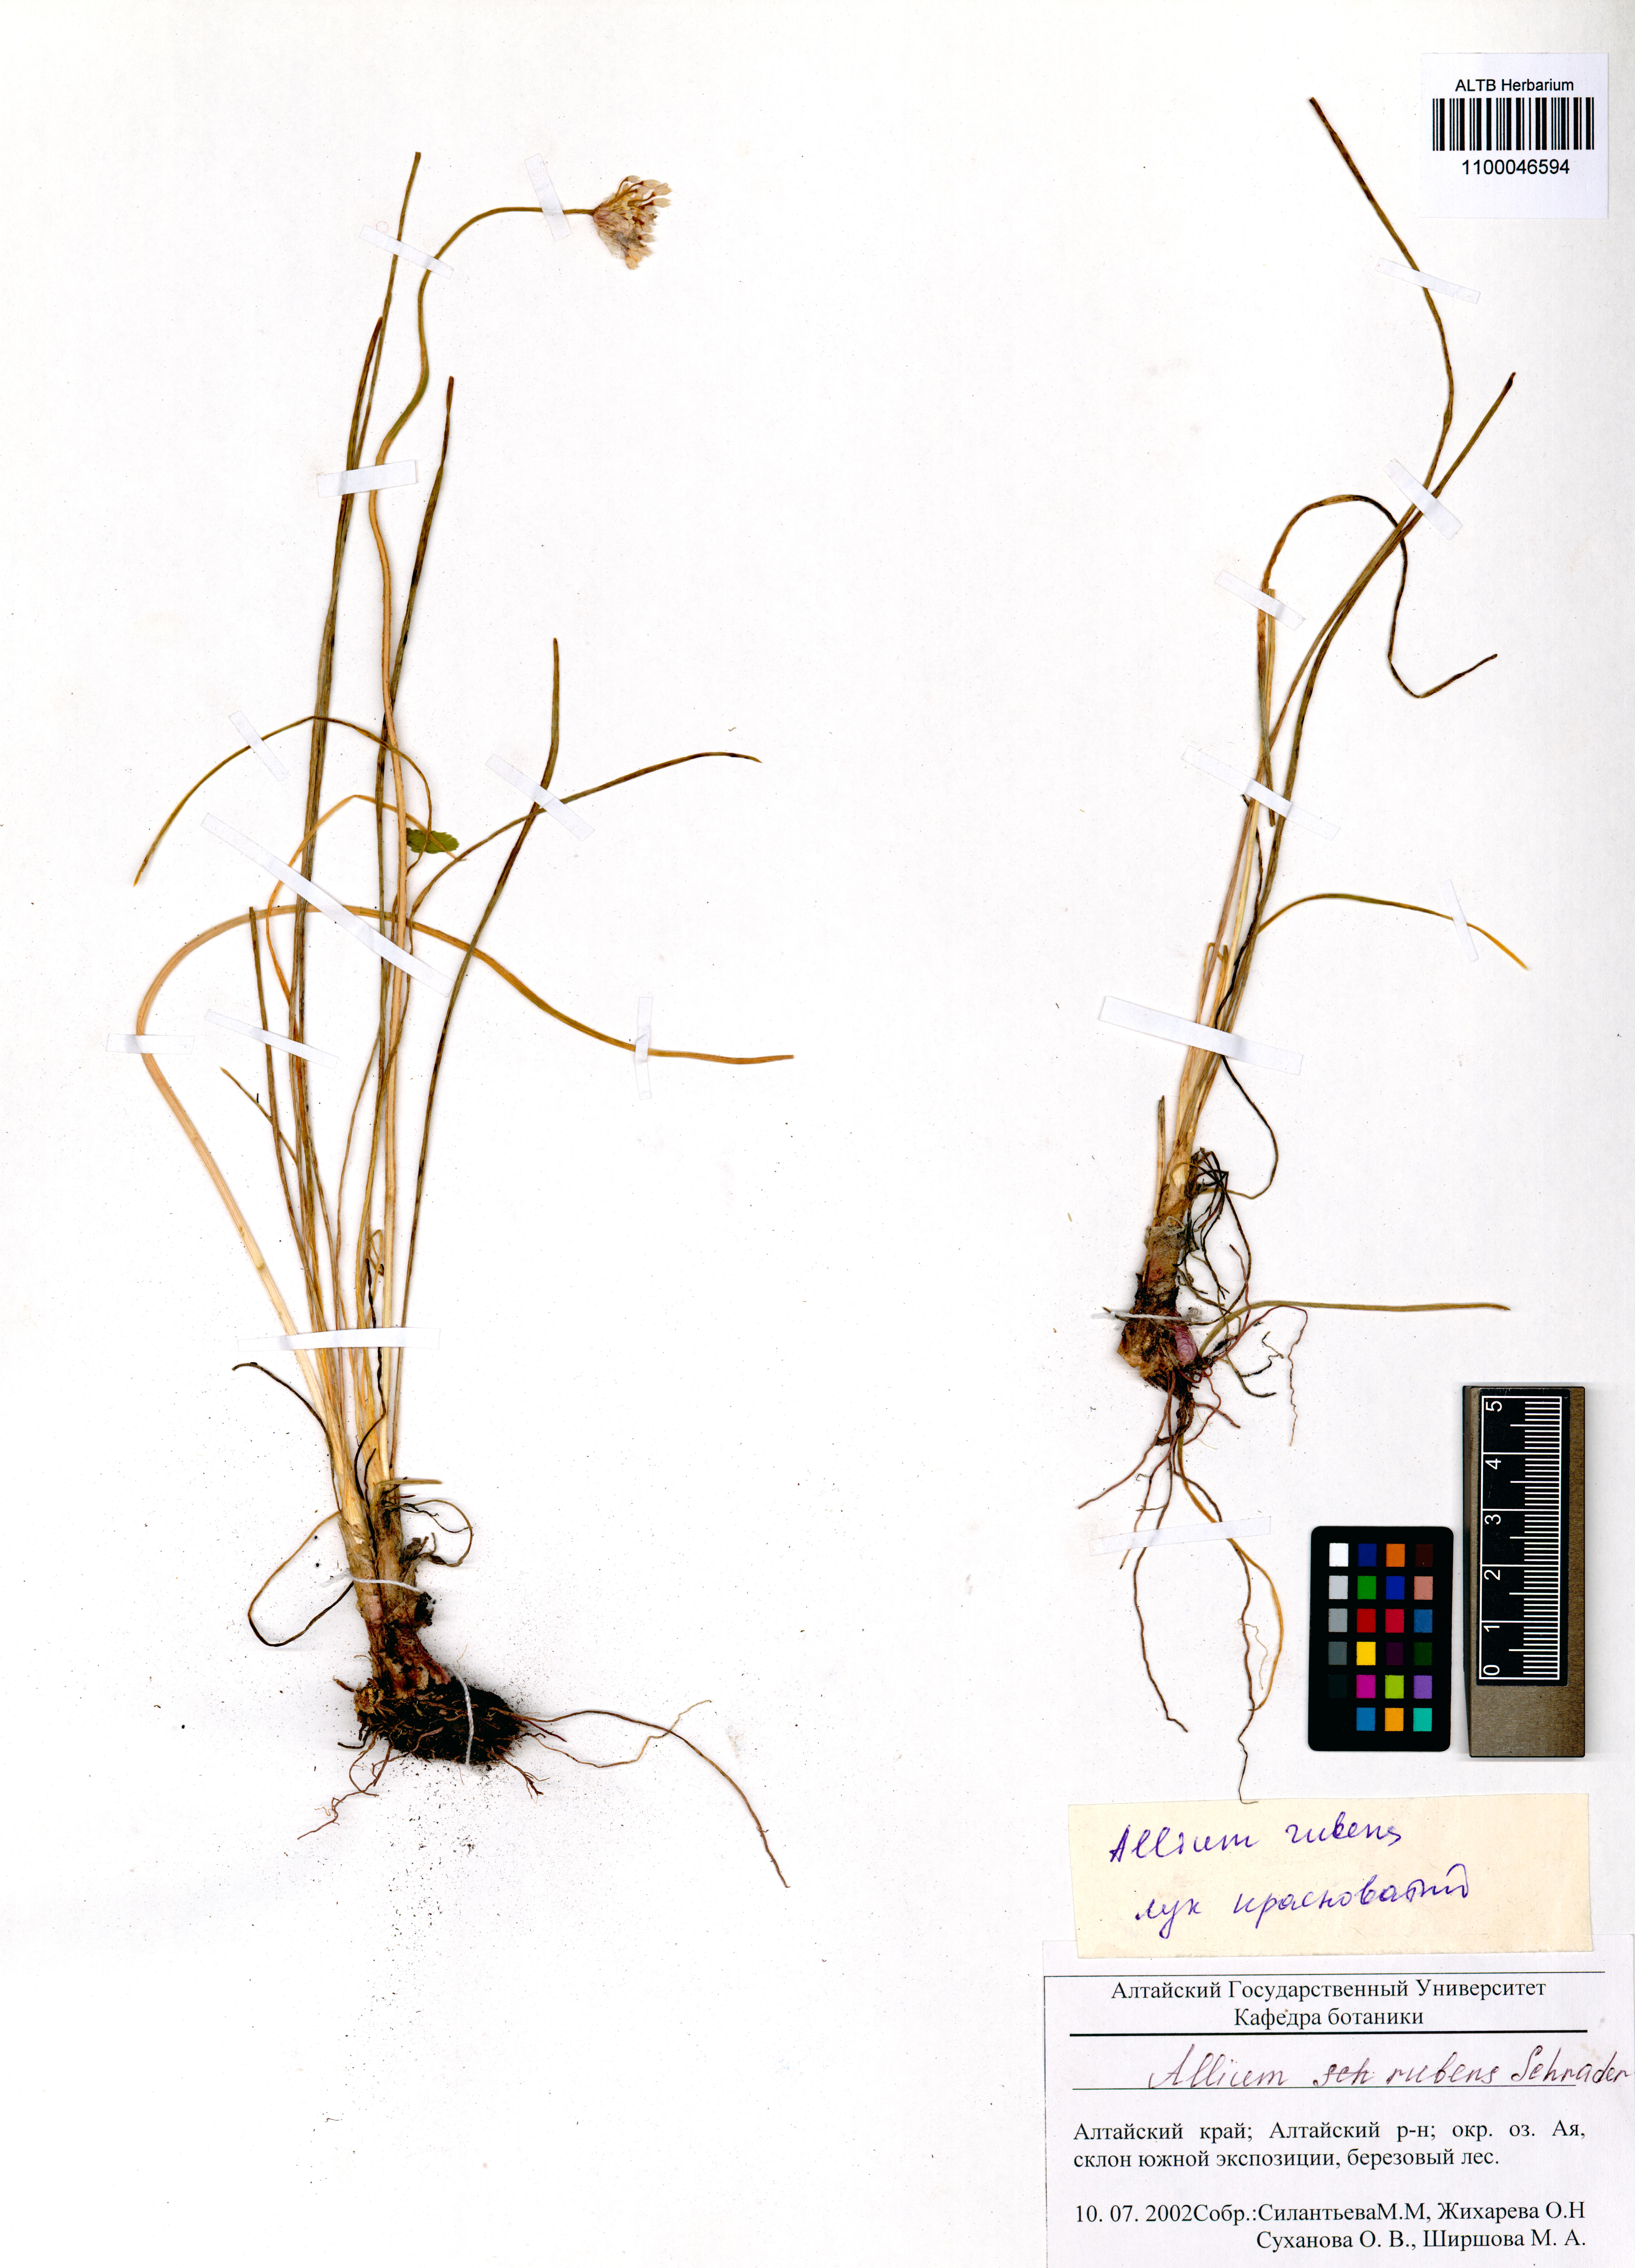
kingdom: Plantae
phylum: Tracheophyta
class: Liliopsida
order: Asparagales
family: Amaryllidaceae
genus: Allium
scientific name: Allium rubens
